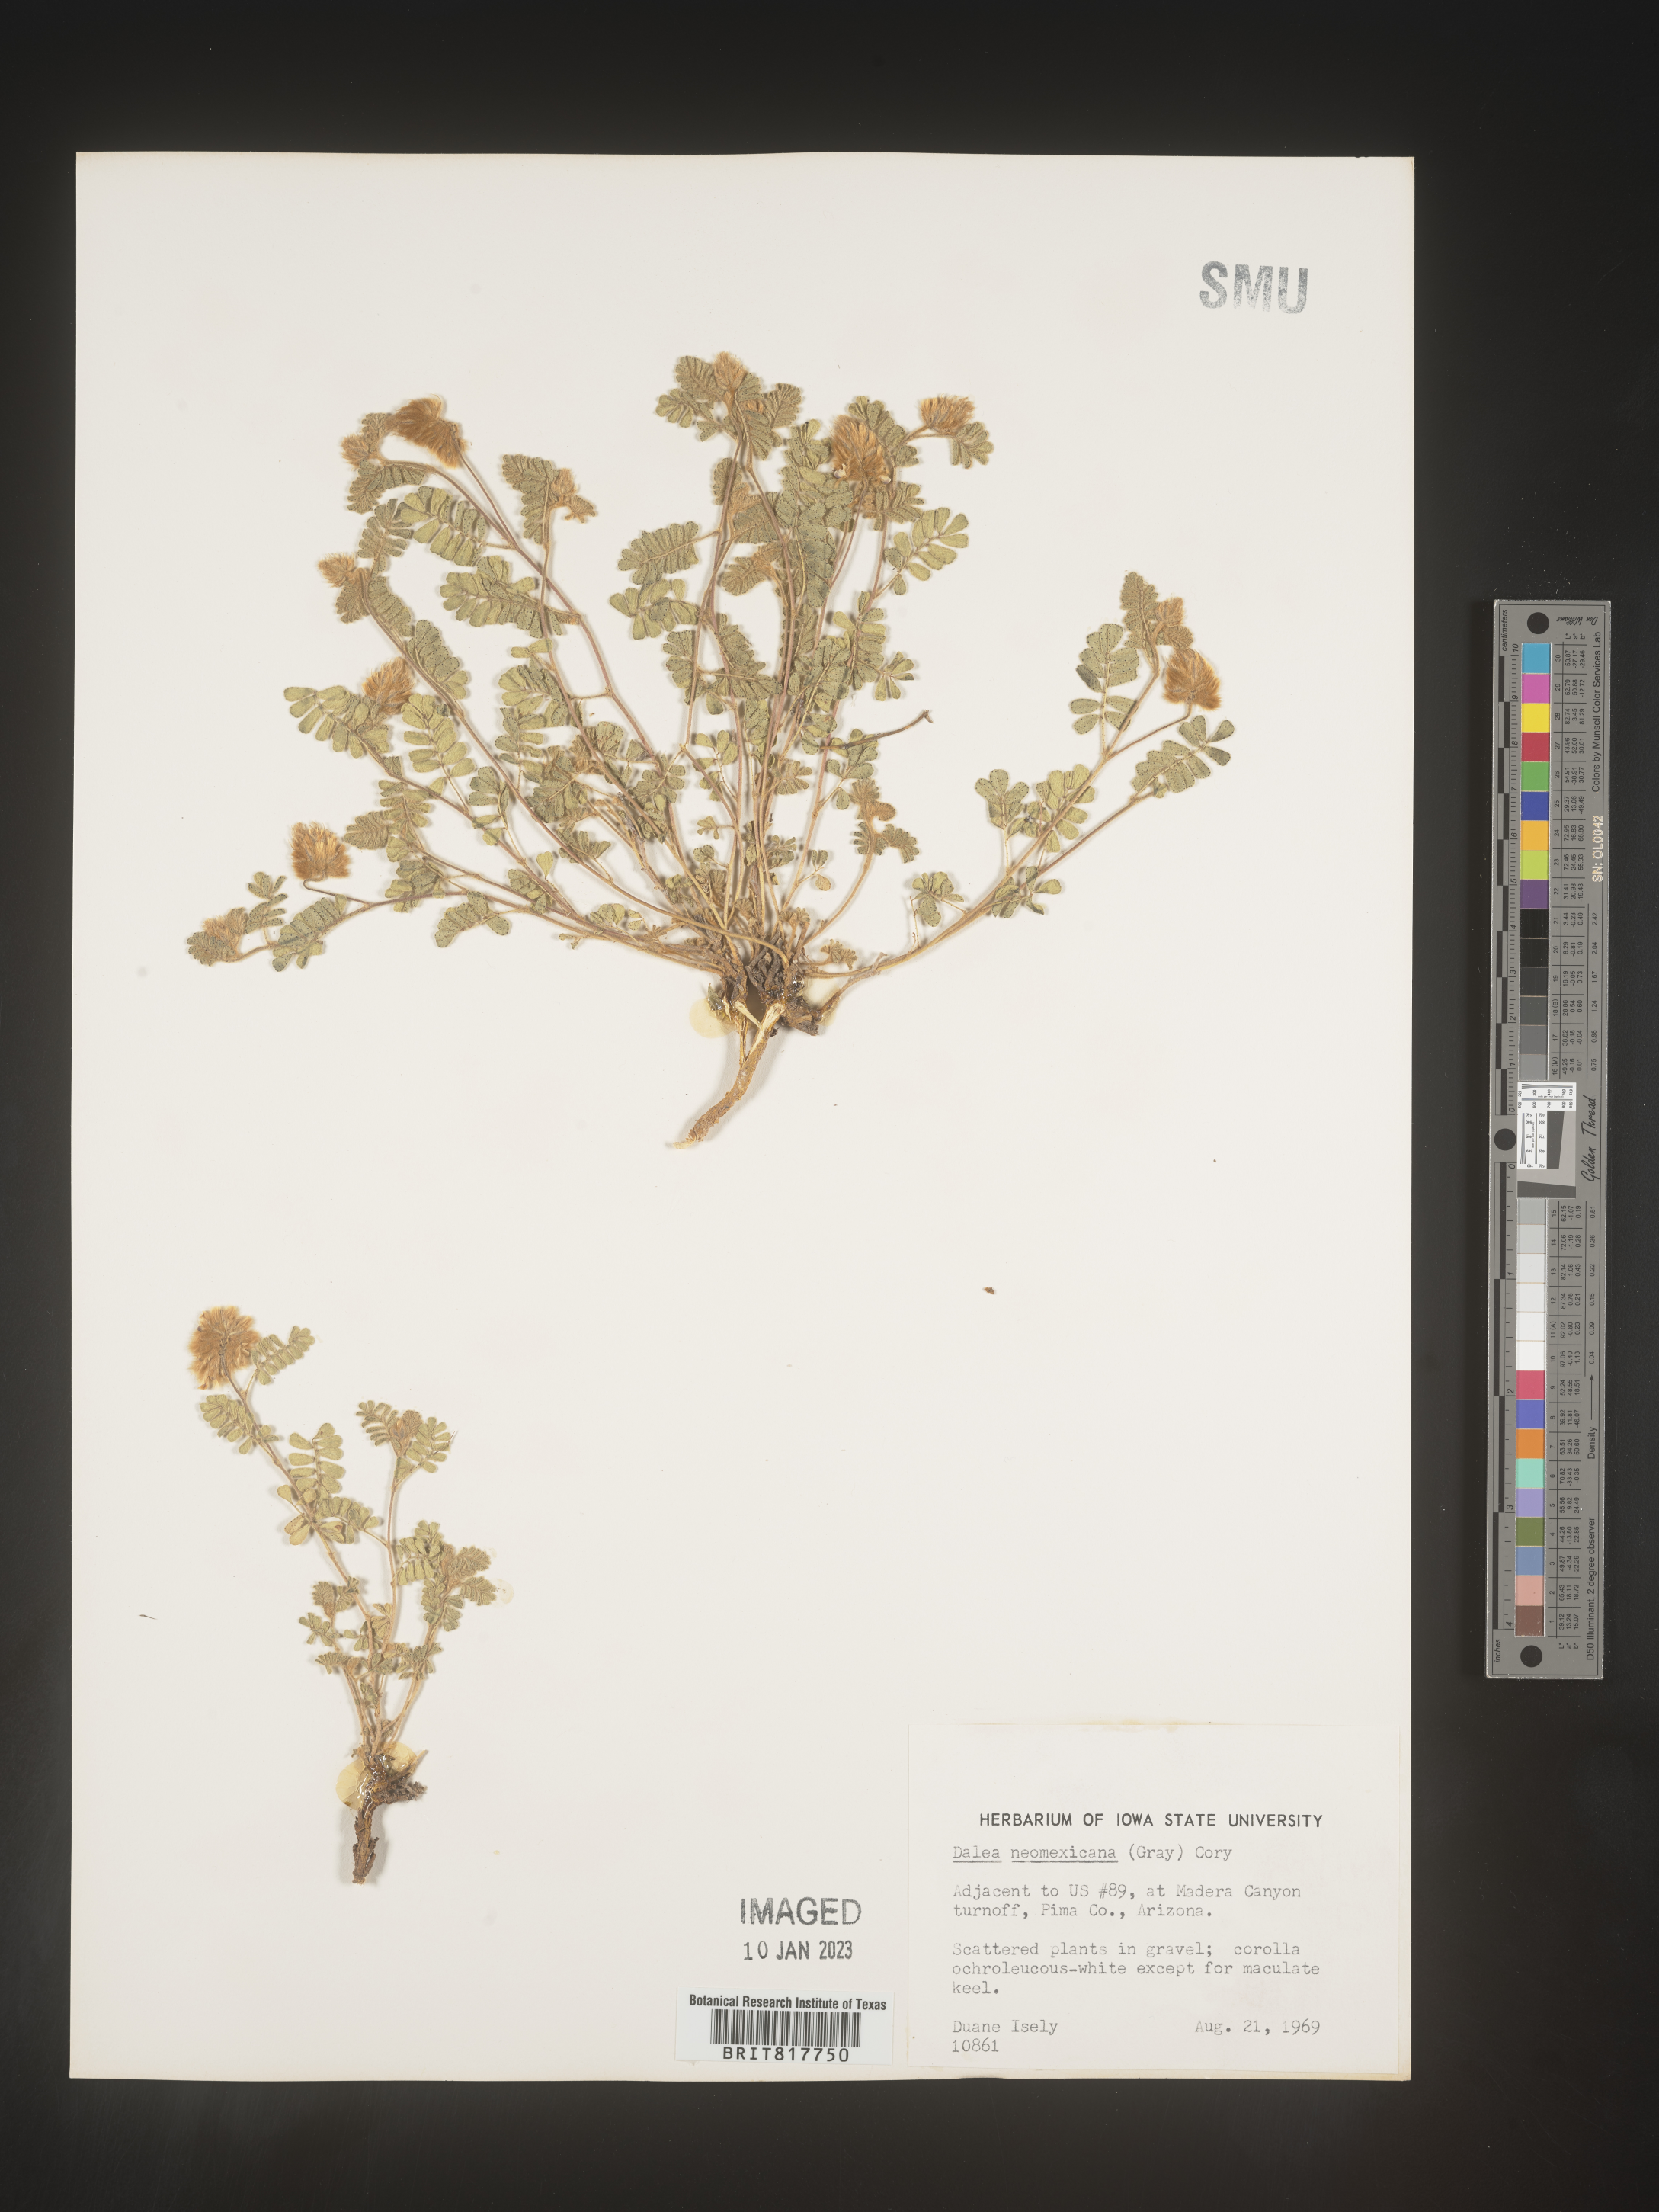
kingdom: Plantae
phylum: Tracheophyta
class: Magnoliopsida
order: Fabales
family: Fabaceae
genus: Dalea
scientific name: Dalea neomexicana
